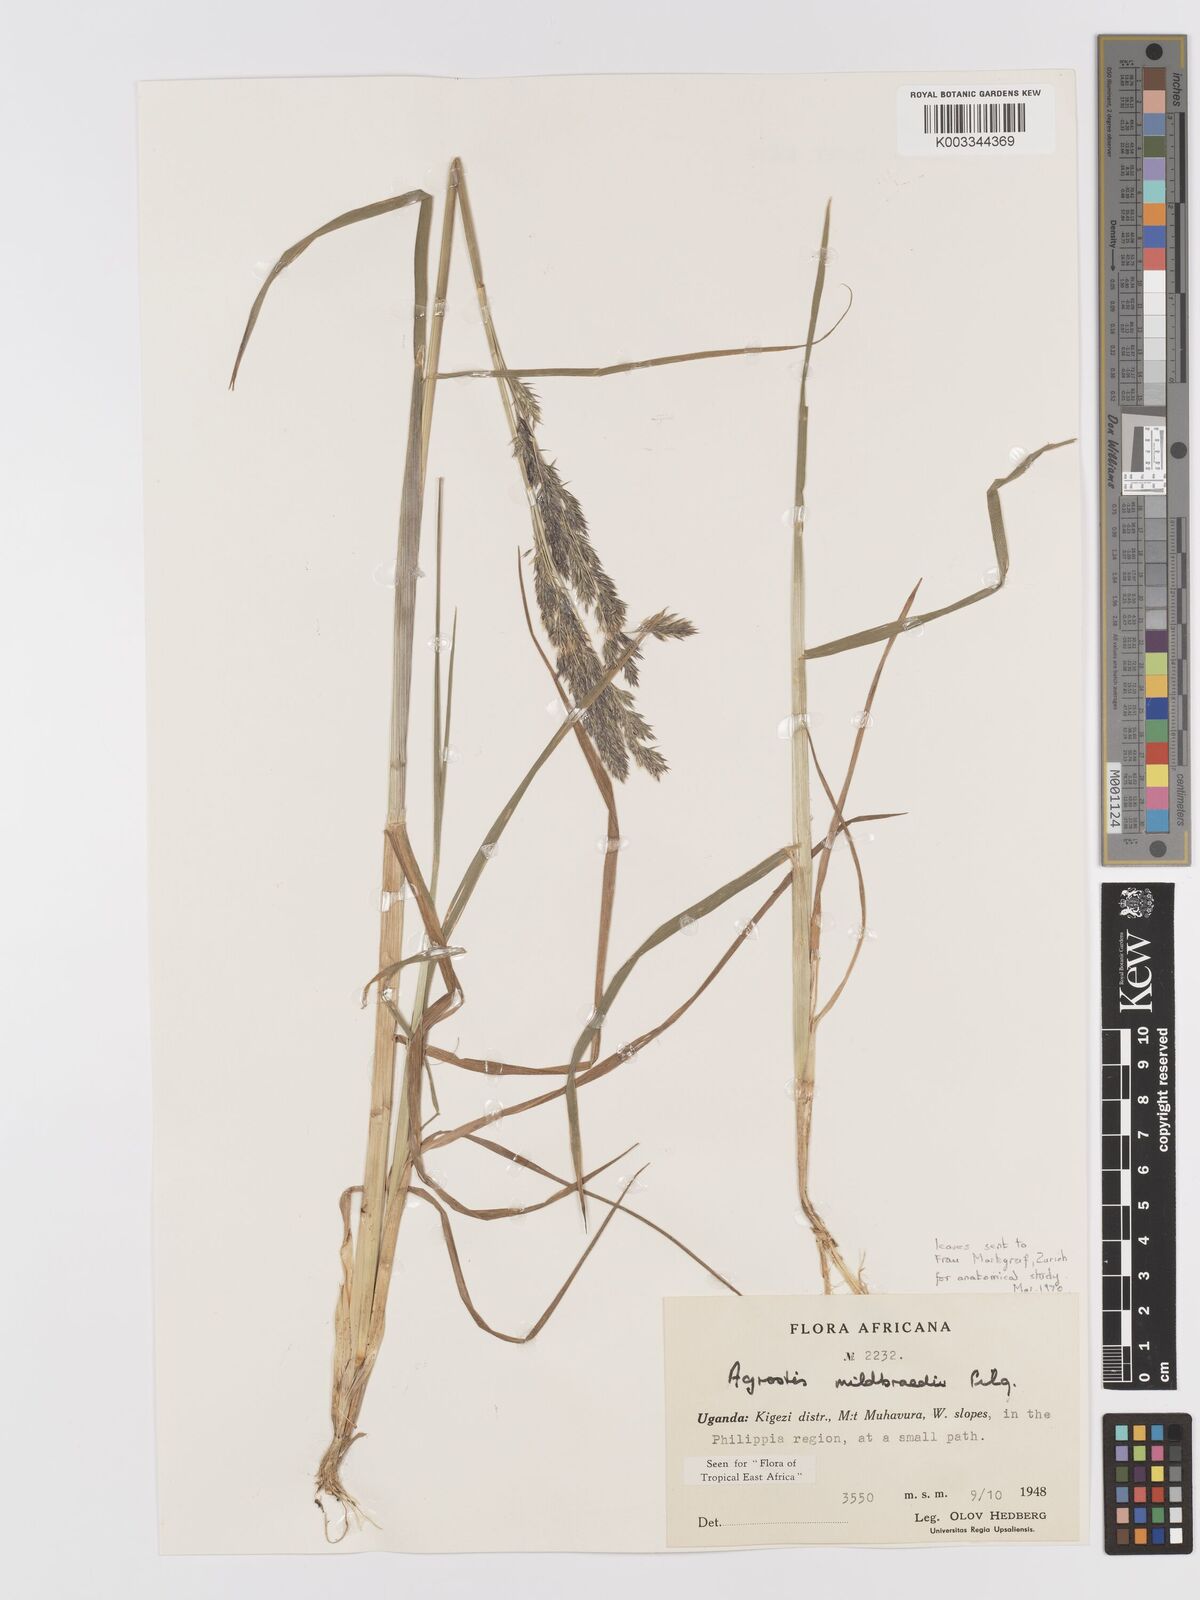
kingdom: Plantae
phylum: Tracheophyta
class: Liliopsida
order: Poales
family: Poaceae
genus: Agrostis
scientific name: Agrostis quinqueseta
